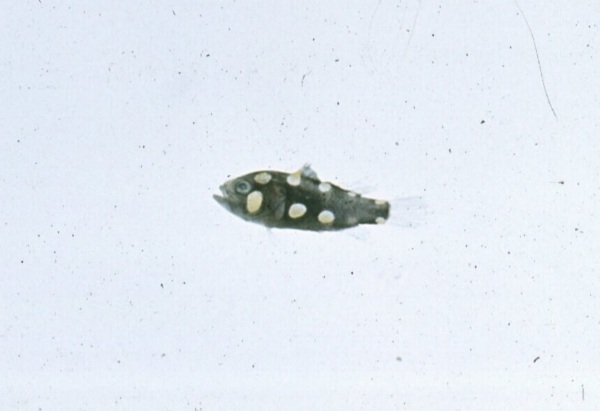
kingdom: Animalia
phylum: Chordata
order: Perciformes
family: Serranidae
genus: Grammistes
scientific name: Grammistes sexlineatus
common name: Sixline soapfish
